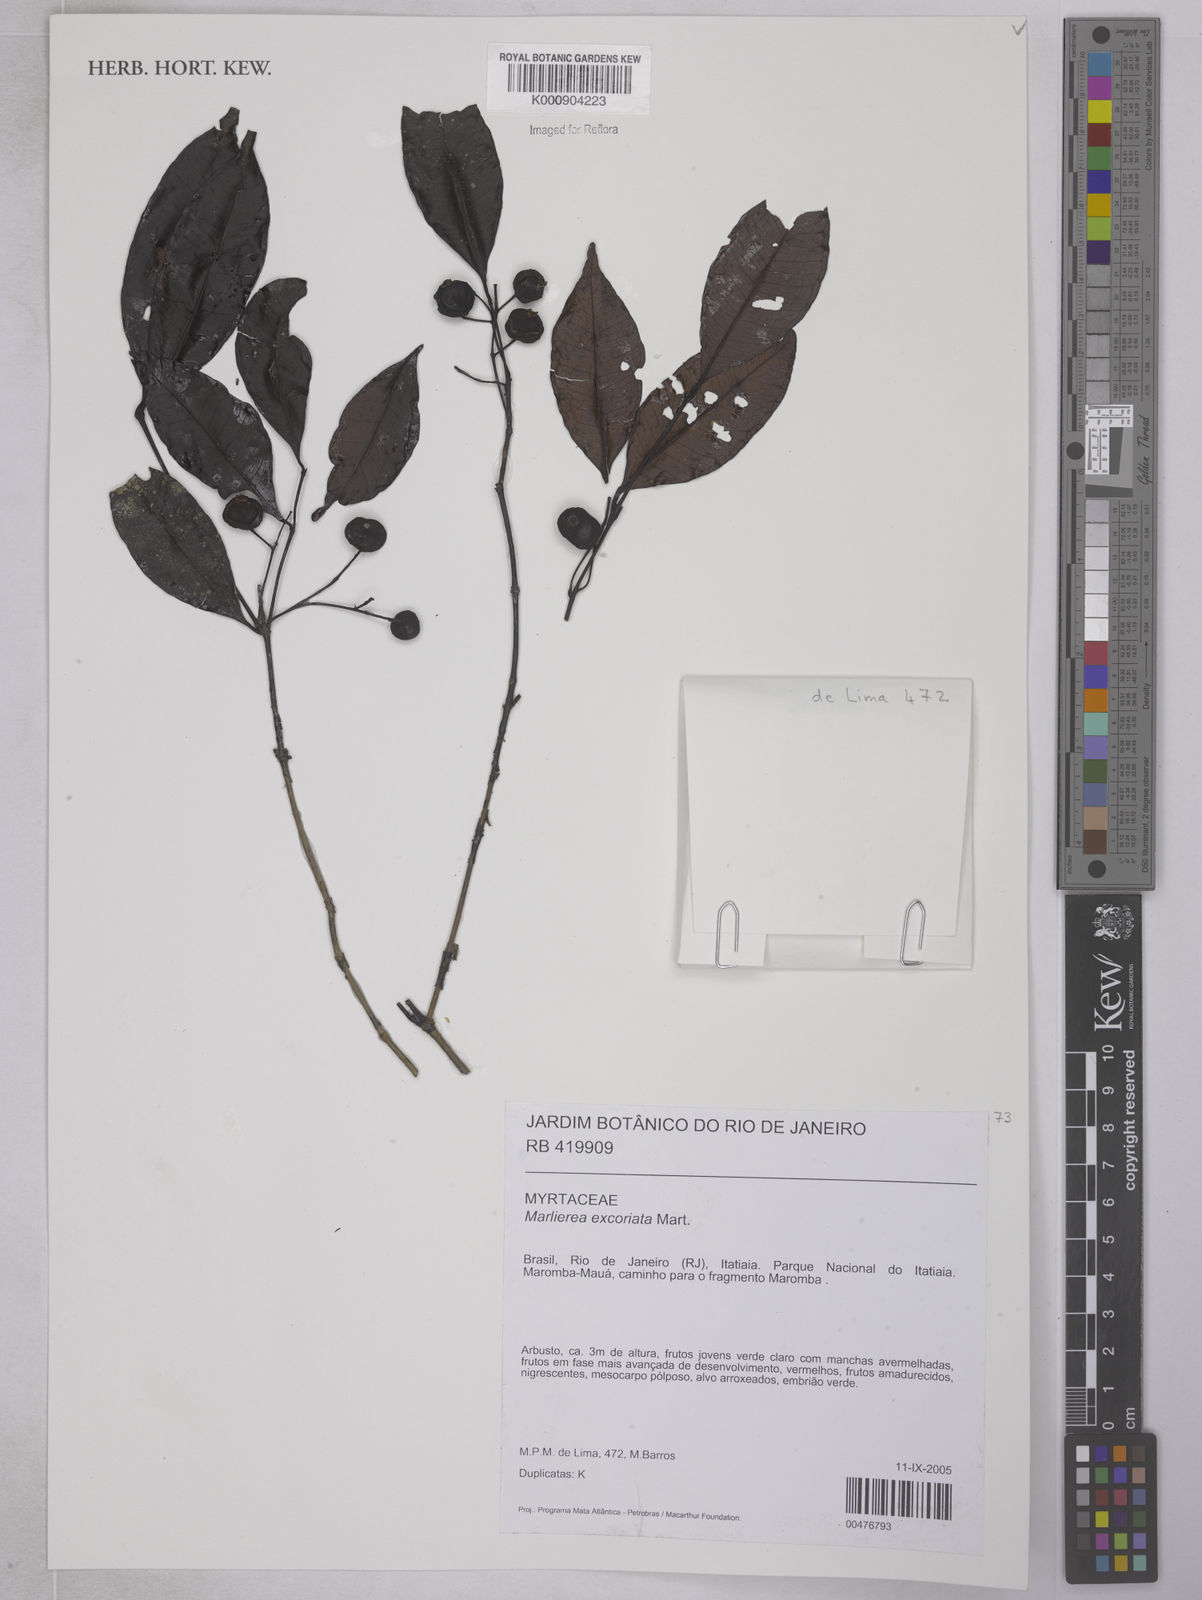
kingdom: Plantae
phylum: Tracheophyta
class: Magnoliopsida
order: Myrtales
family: Myrtaceae
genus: Myrcia
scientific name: Myrcia excoriata
